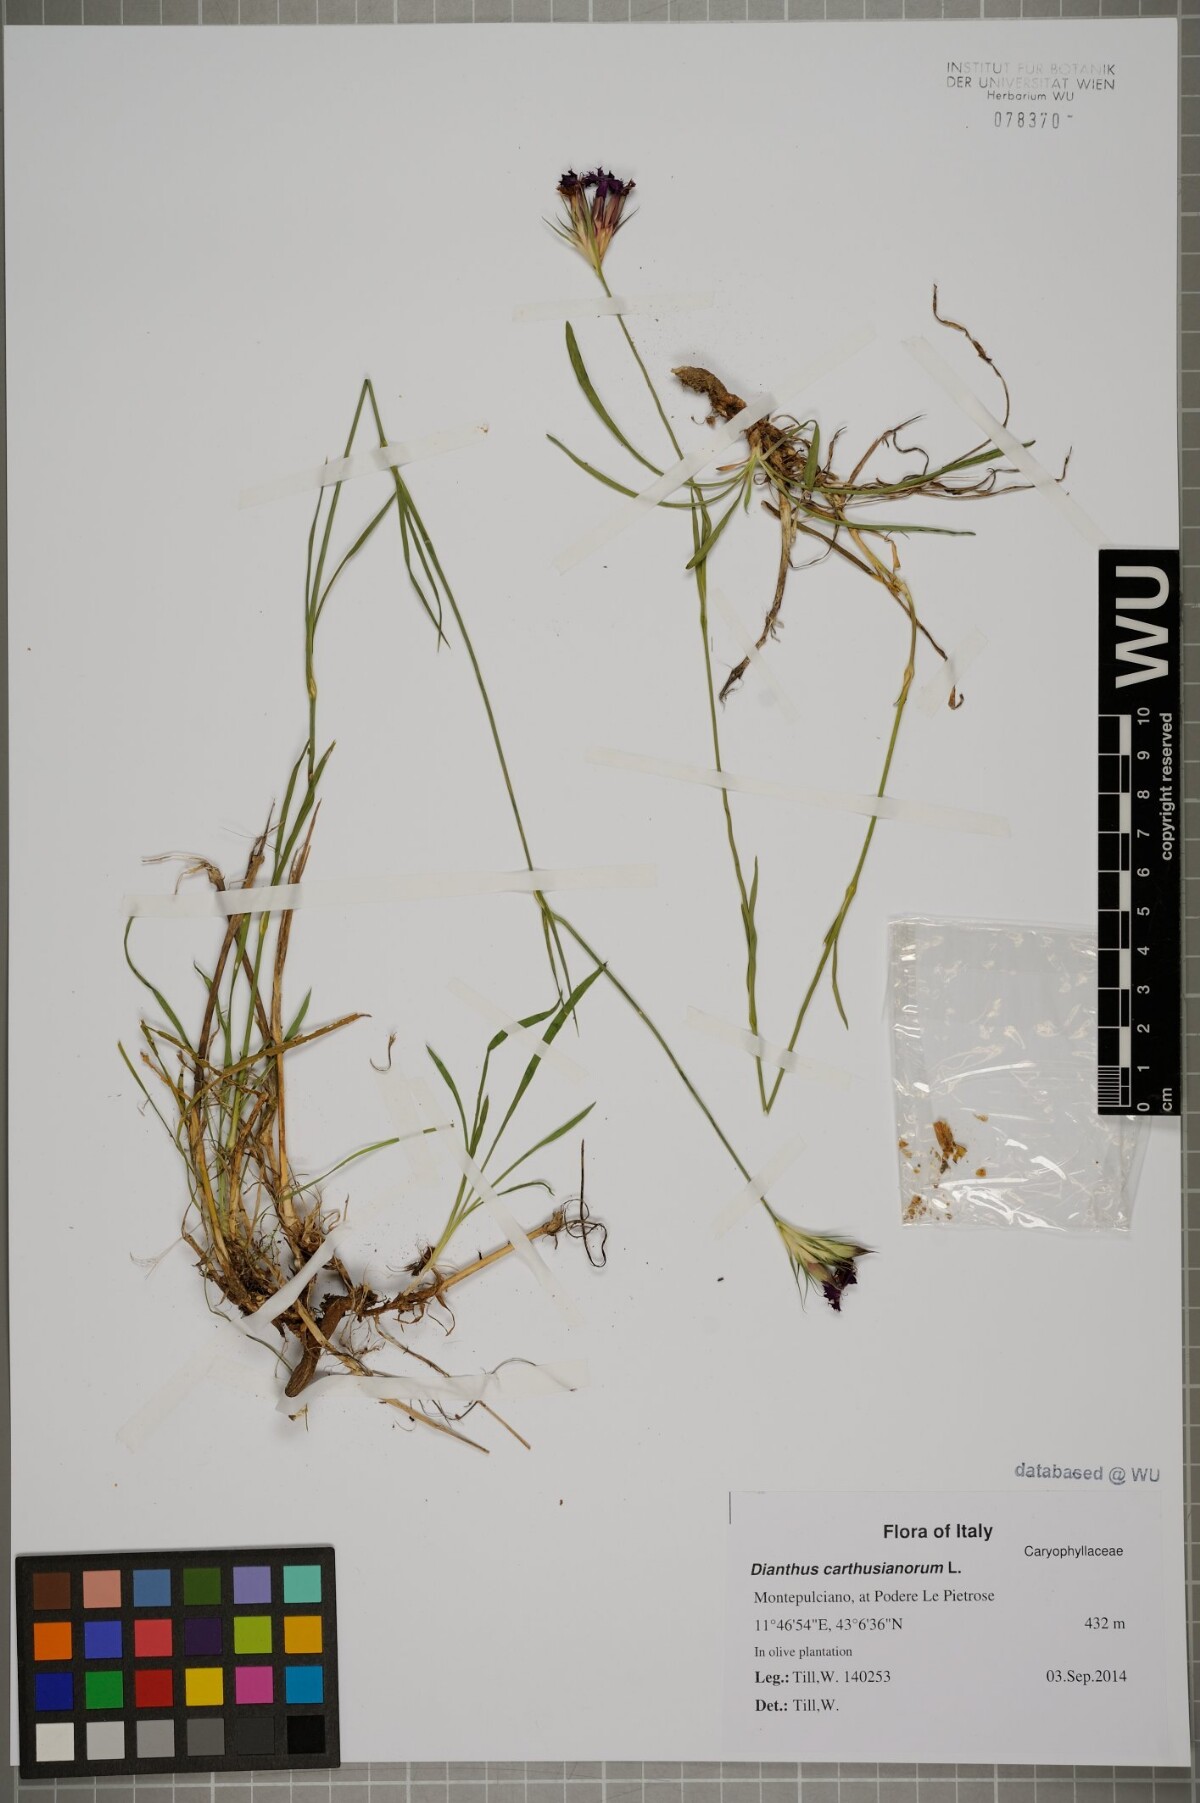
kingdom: Plantae
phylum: Tracheophyta
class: Magnoliopsida
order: Caryophyllales
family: Caryophyllaceae
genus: Dianthus
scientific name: Dianthus carthusianorum
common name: Carthusian pink
